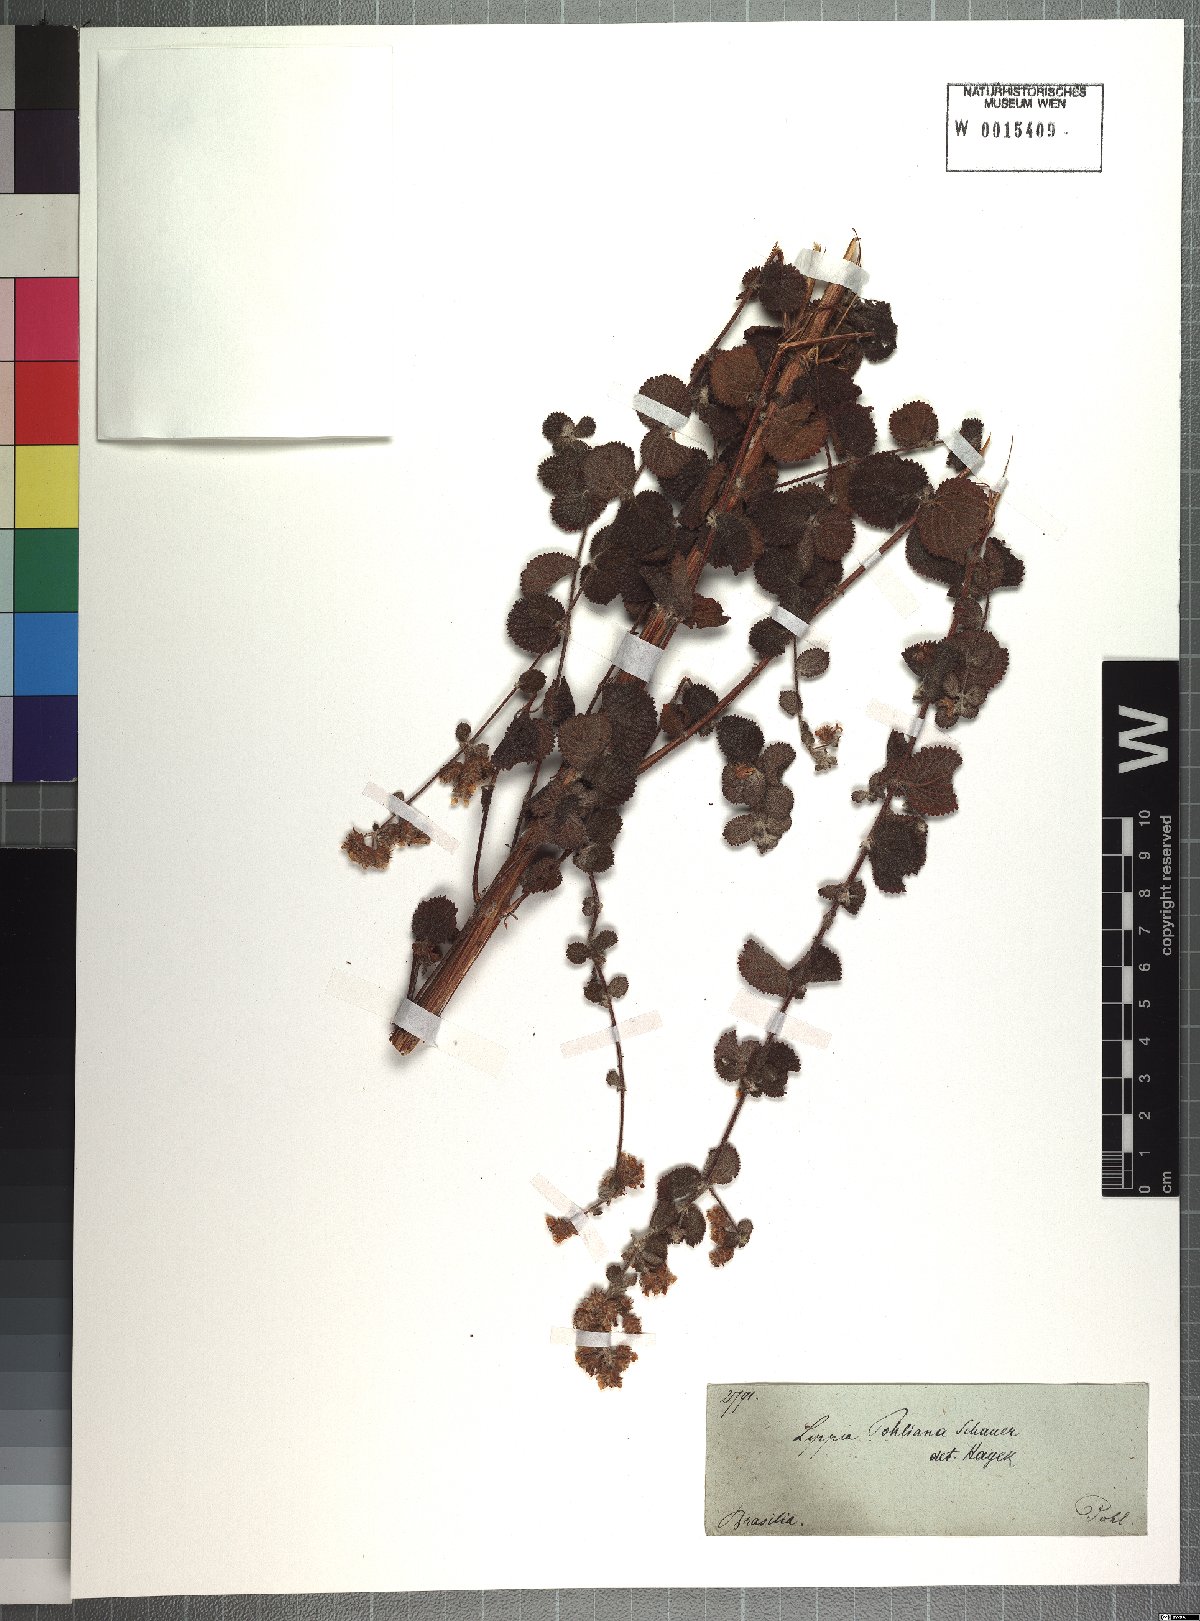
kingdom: Plantae
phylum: Tracheophyta
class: Magnoliopsida
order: Lamiales
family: Verbenaceae
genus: Lippia
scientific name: Lippia martiana
